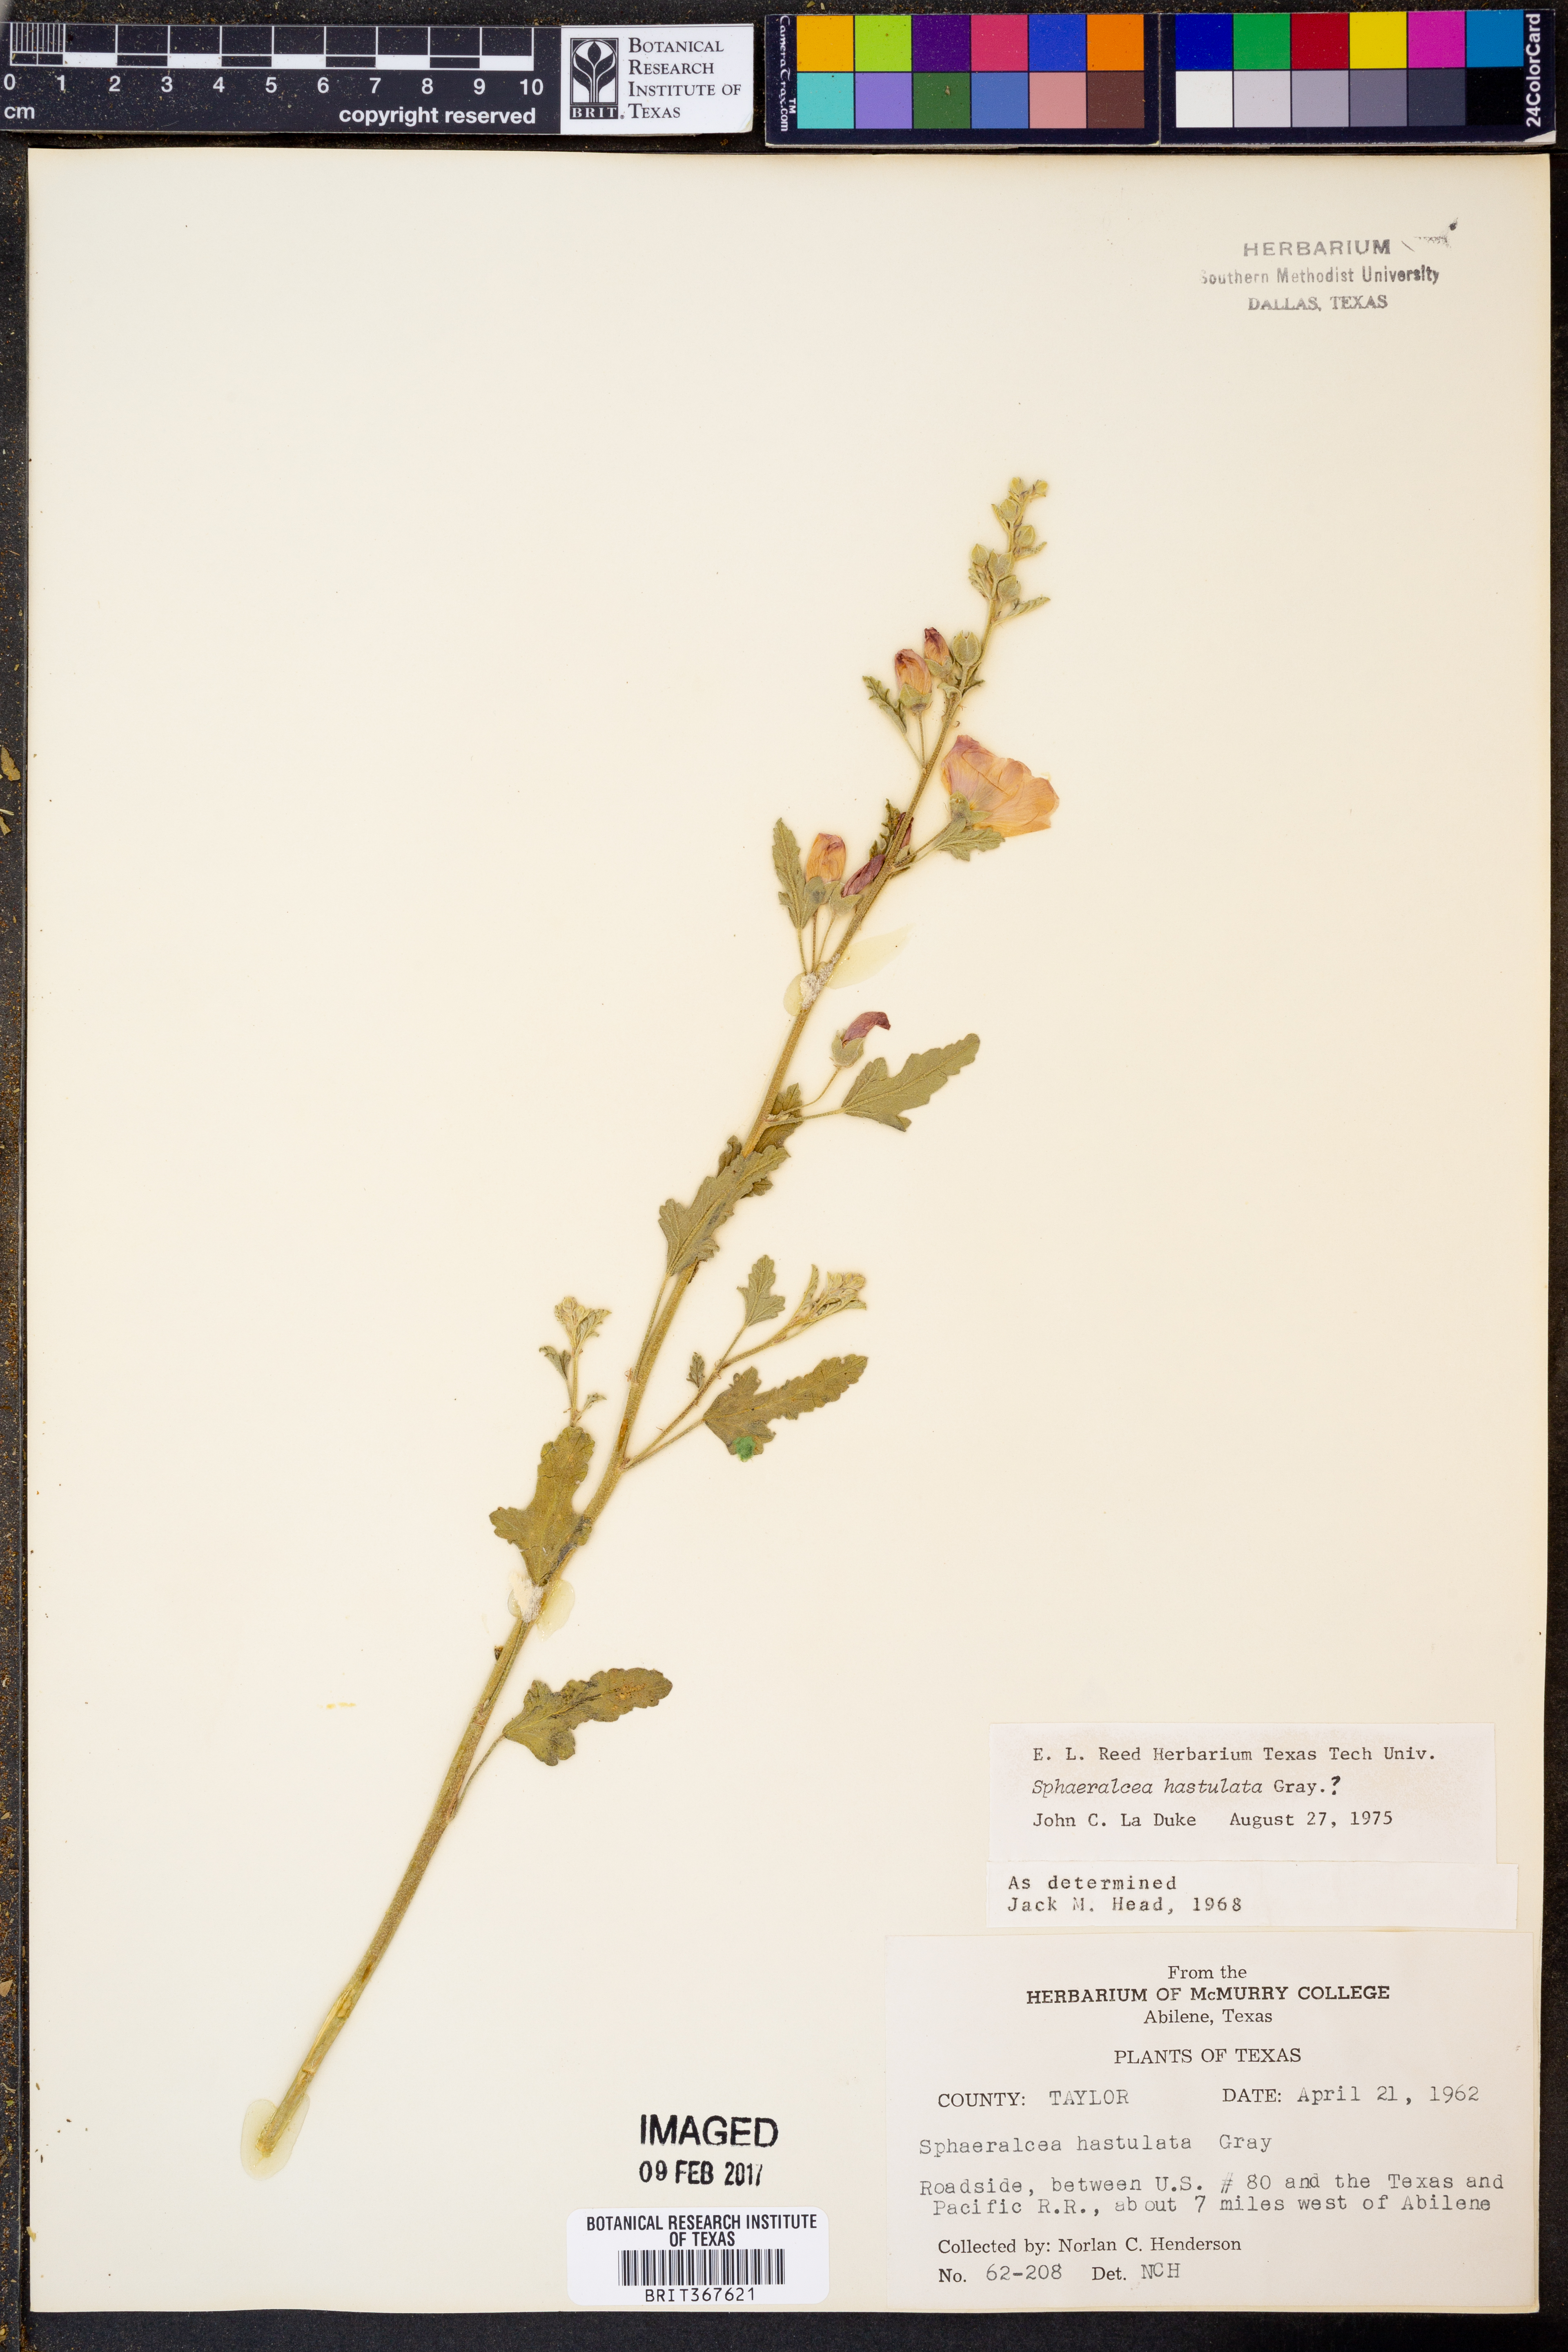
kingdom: Plantae
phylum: Tracheophyta
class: Magnoliopsida
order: Malvales
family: Malvaceae
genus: Sphaeralcea
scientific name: Sphaeralcea hastulata
